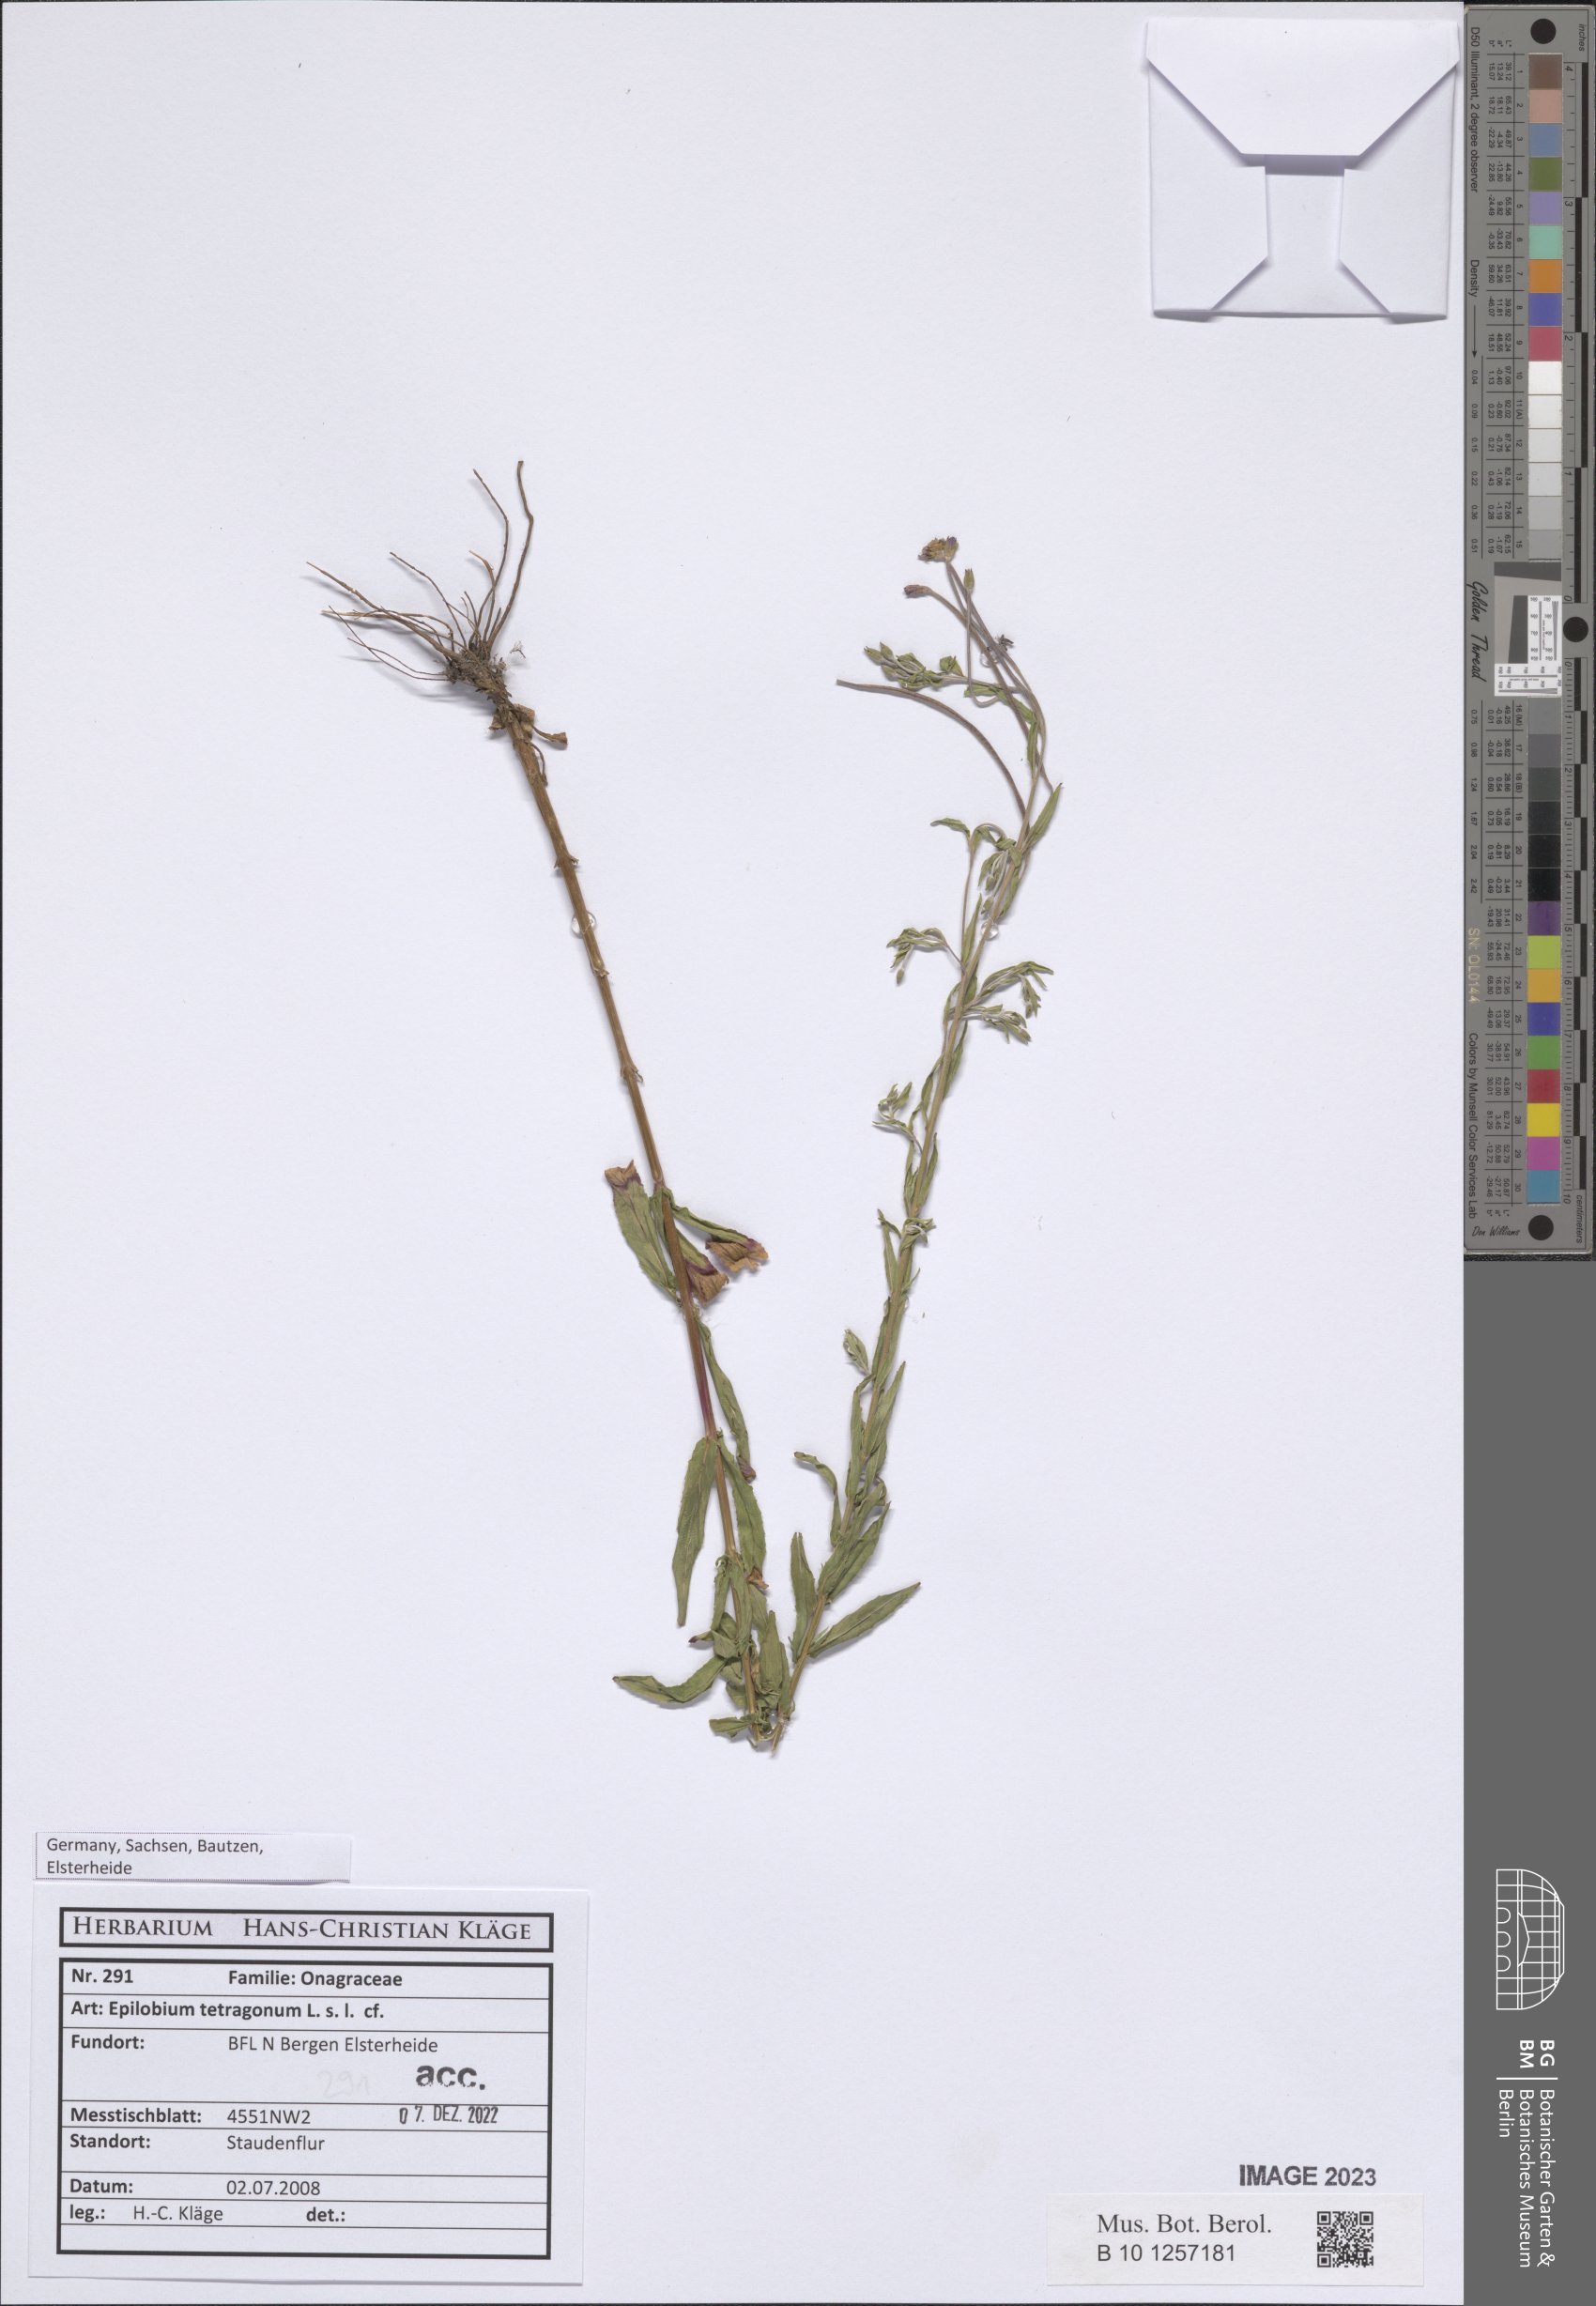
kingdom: Plantae
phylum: Tracheophyta
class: Magnoliopsida
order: Myrtales
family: Onagraceae
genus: Epilobium
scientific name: Epilobium tetragonum
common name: Square-stemmed willowherb
